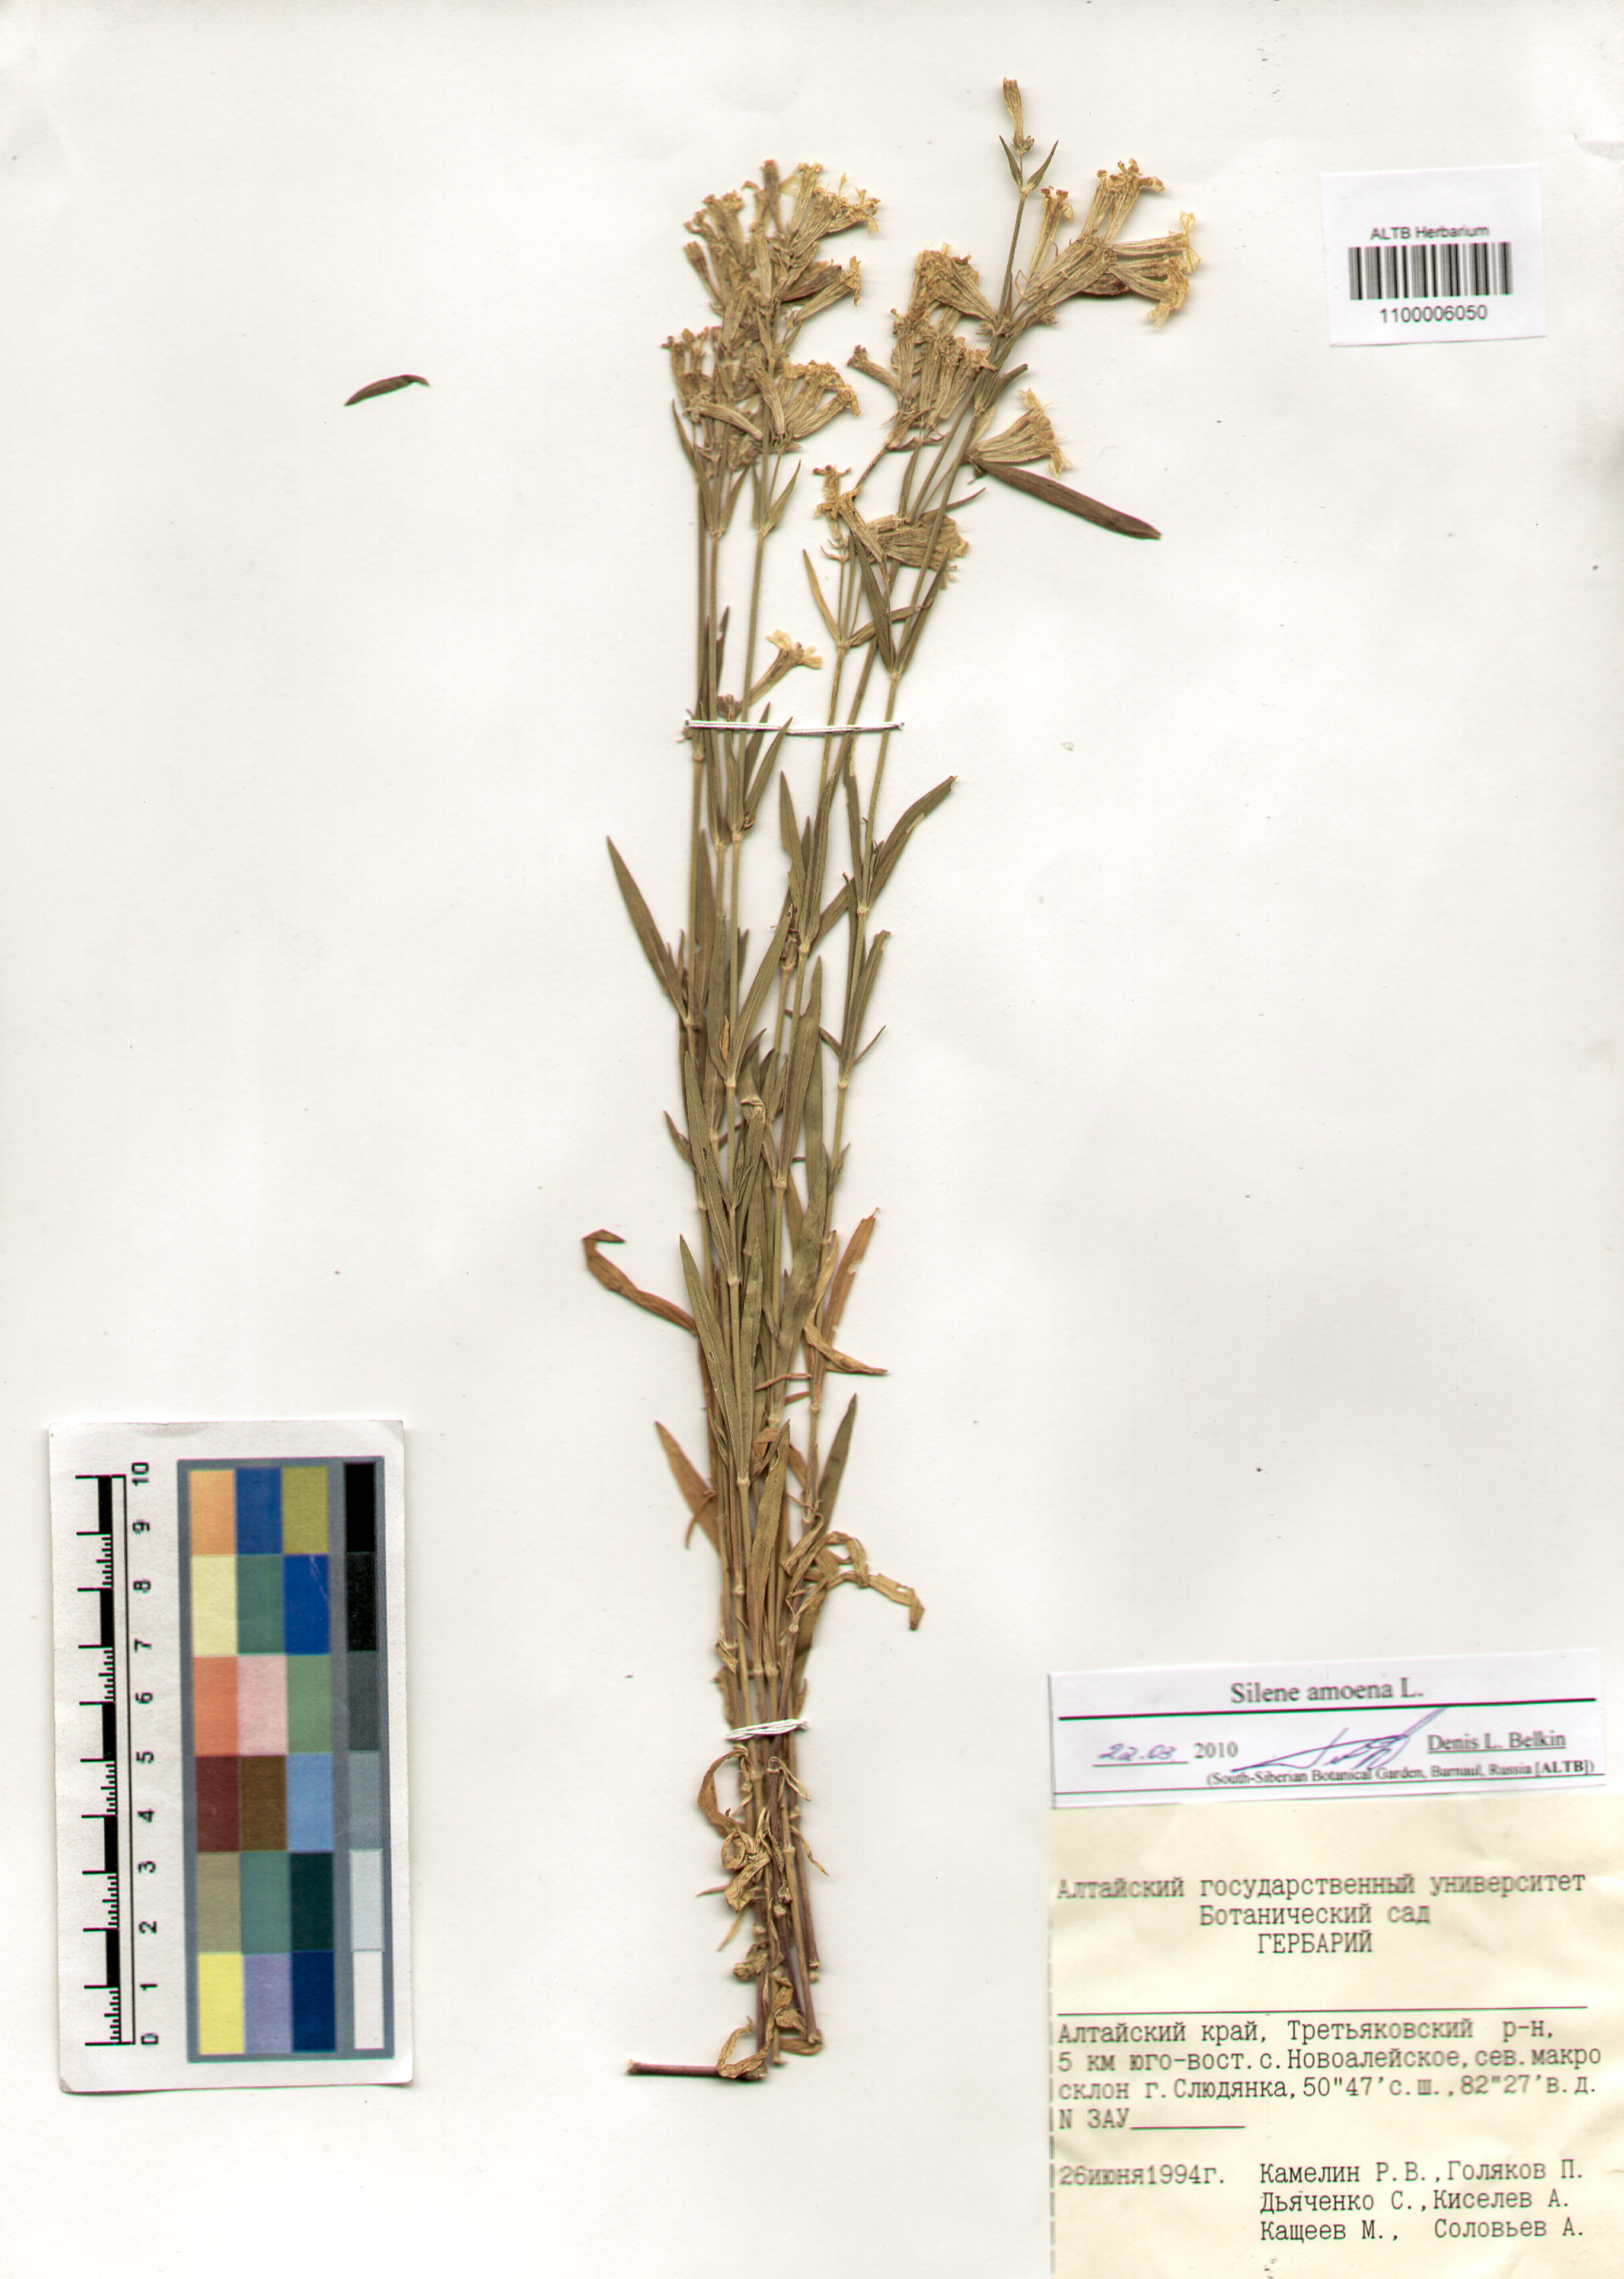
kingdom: Plantae
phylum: Tracheophyta
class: Magnoliopsida
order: Caryophyllales
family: Caryophyllaceae
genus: Silene
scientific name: Silene amoena
